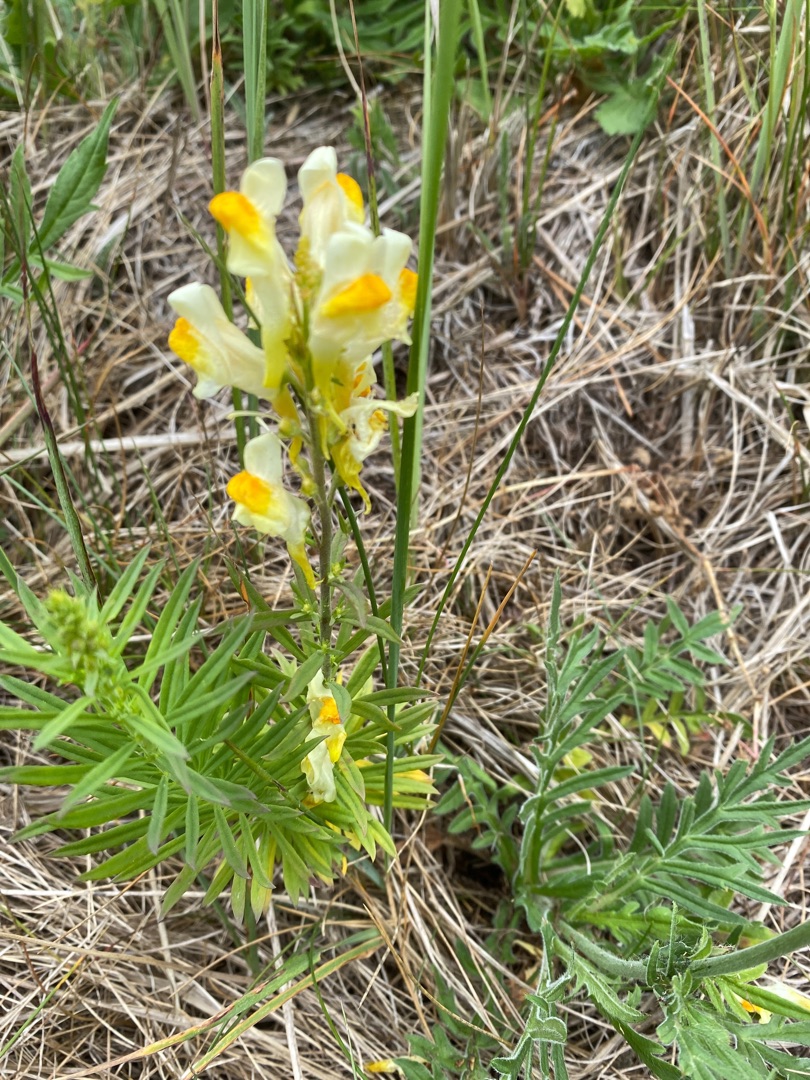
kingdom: Plantae
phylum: Tracheophyta
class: Magnoliopsida
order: Lamiales
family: Plantaginaceae
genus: Linaria
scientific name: Linaria vulgaris
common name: Almindelig torskemund
